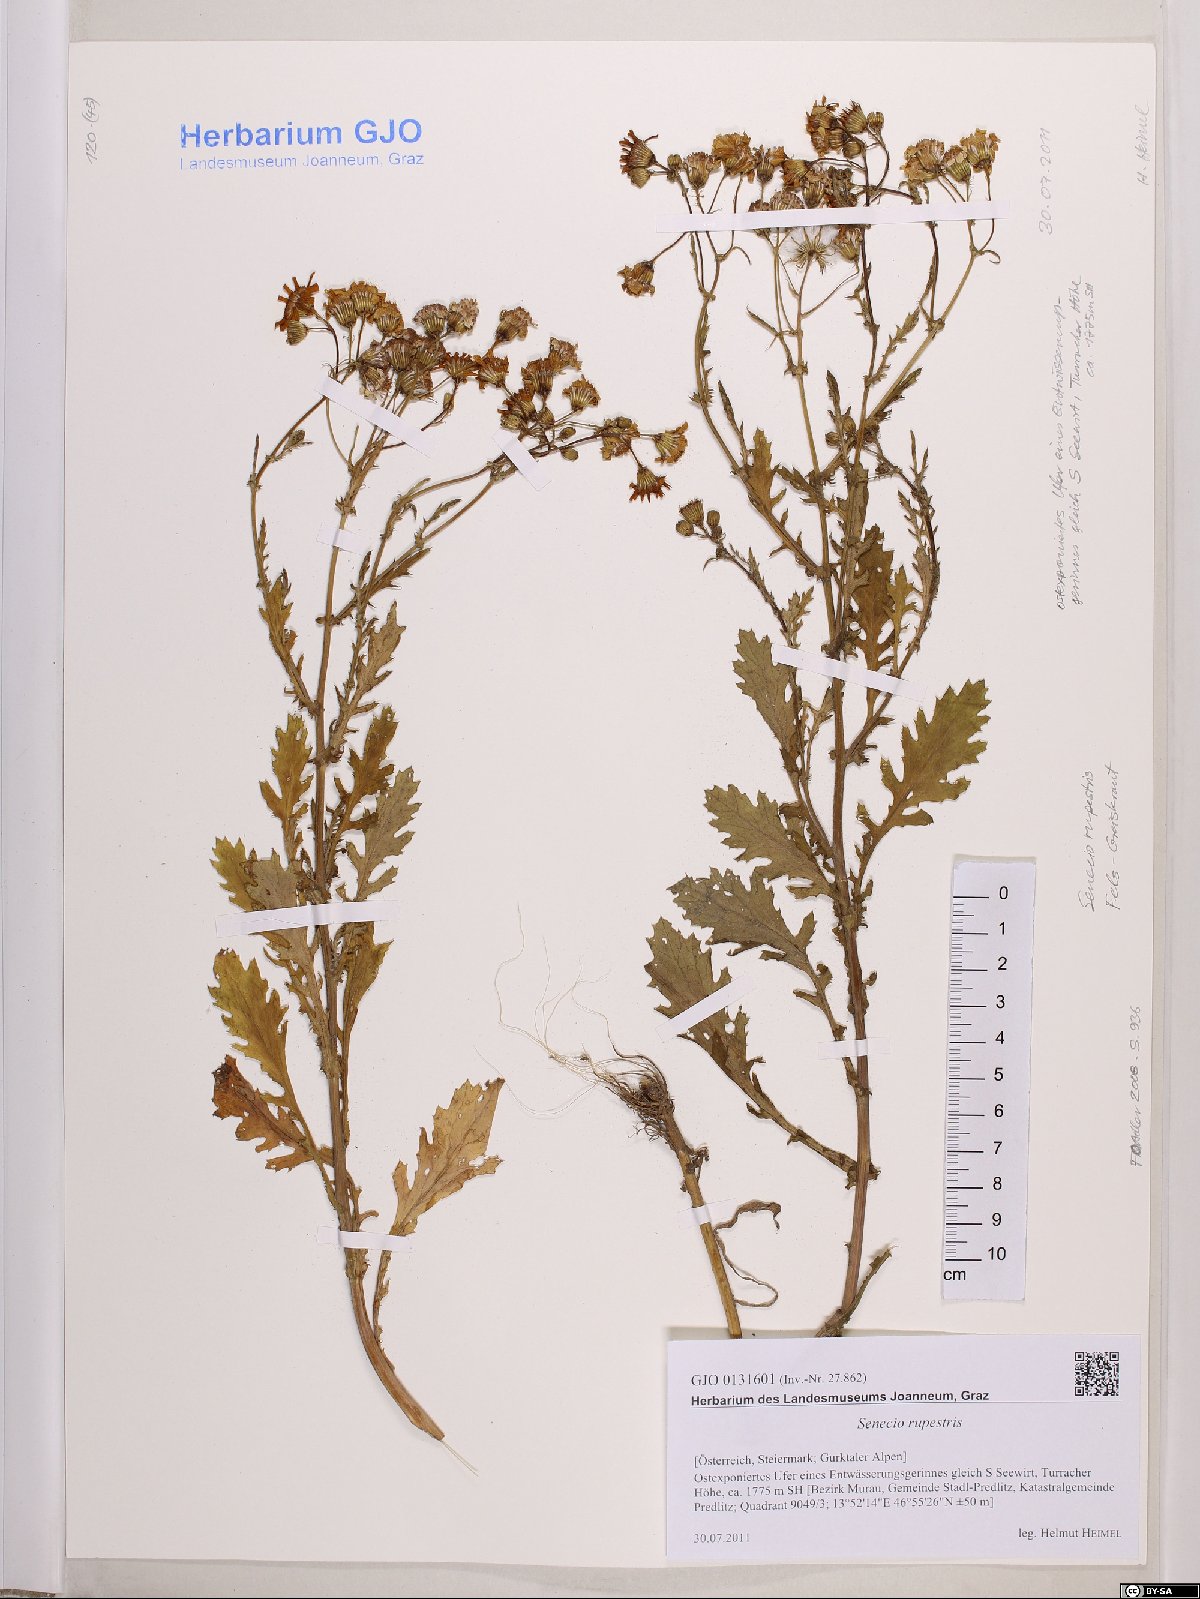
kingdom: Plantae
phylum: Tracheophyta
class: Magnoliopsida
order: Asterales
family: Asteraceae
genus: Senecio
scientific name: Senecio rupestris
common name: Rock ragwort
